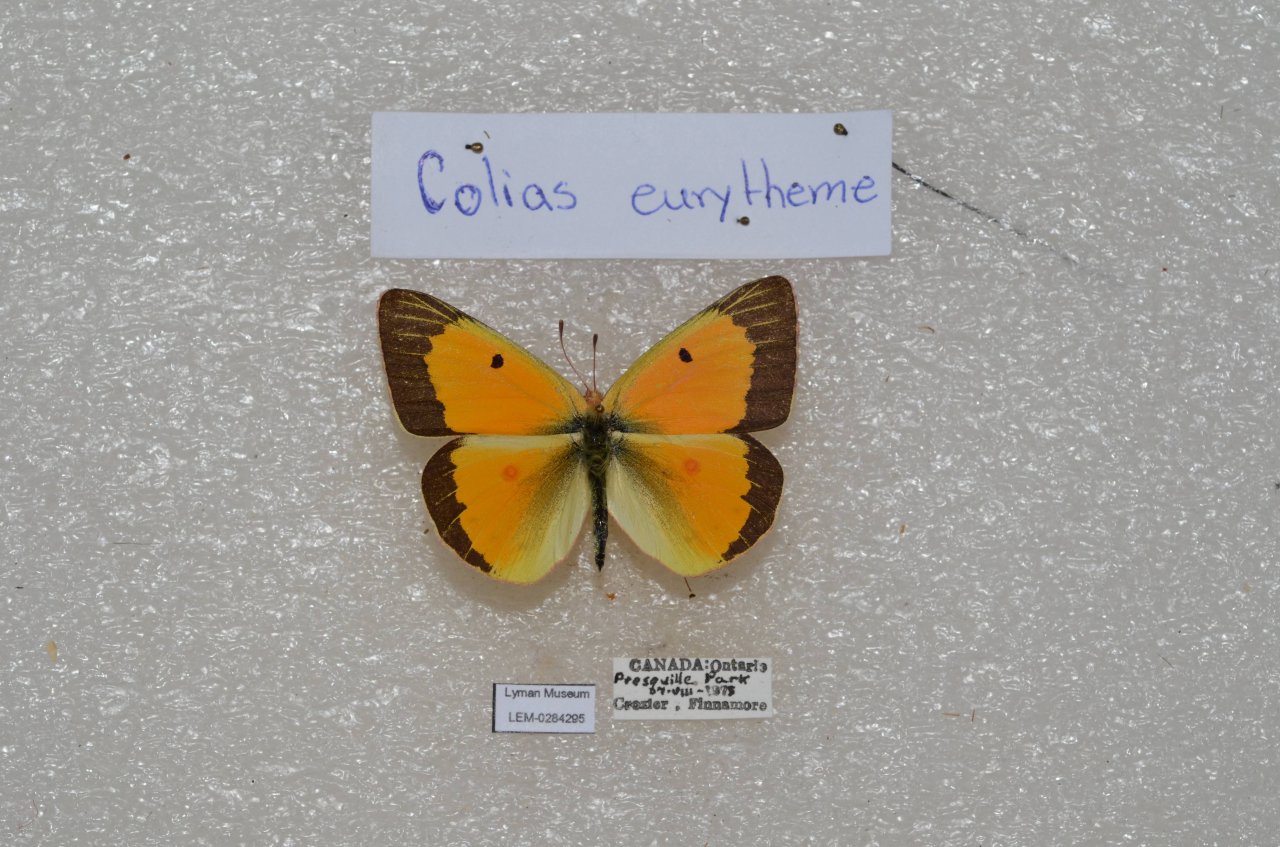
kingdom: Animalia
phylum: Arthropoda
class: Insecta
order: Lepidoptera
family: Pieridae
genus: Colias
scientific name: Colias eurytheme
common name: Orange Sulphur
